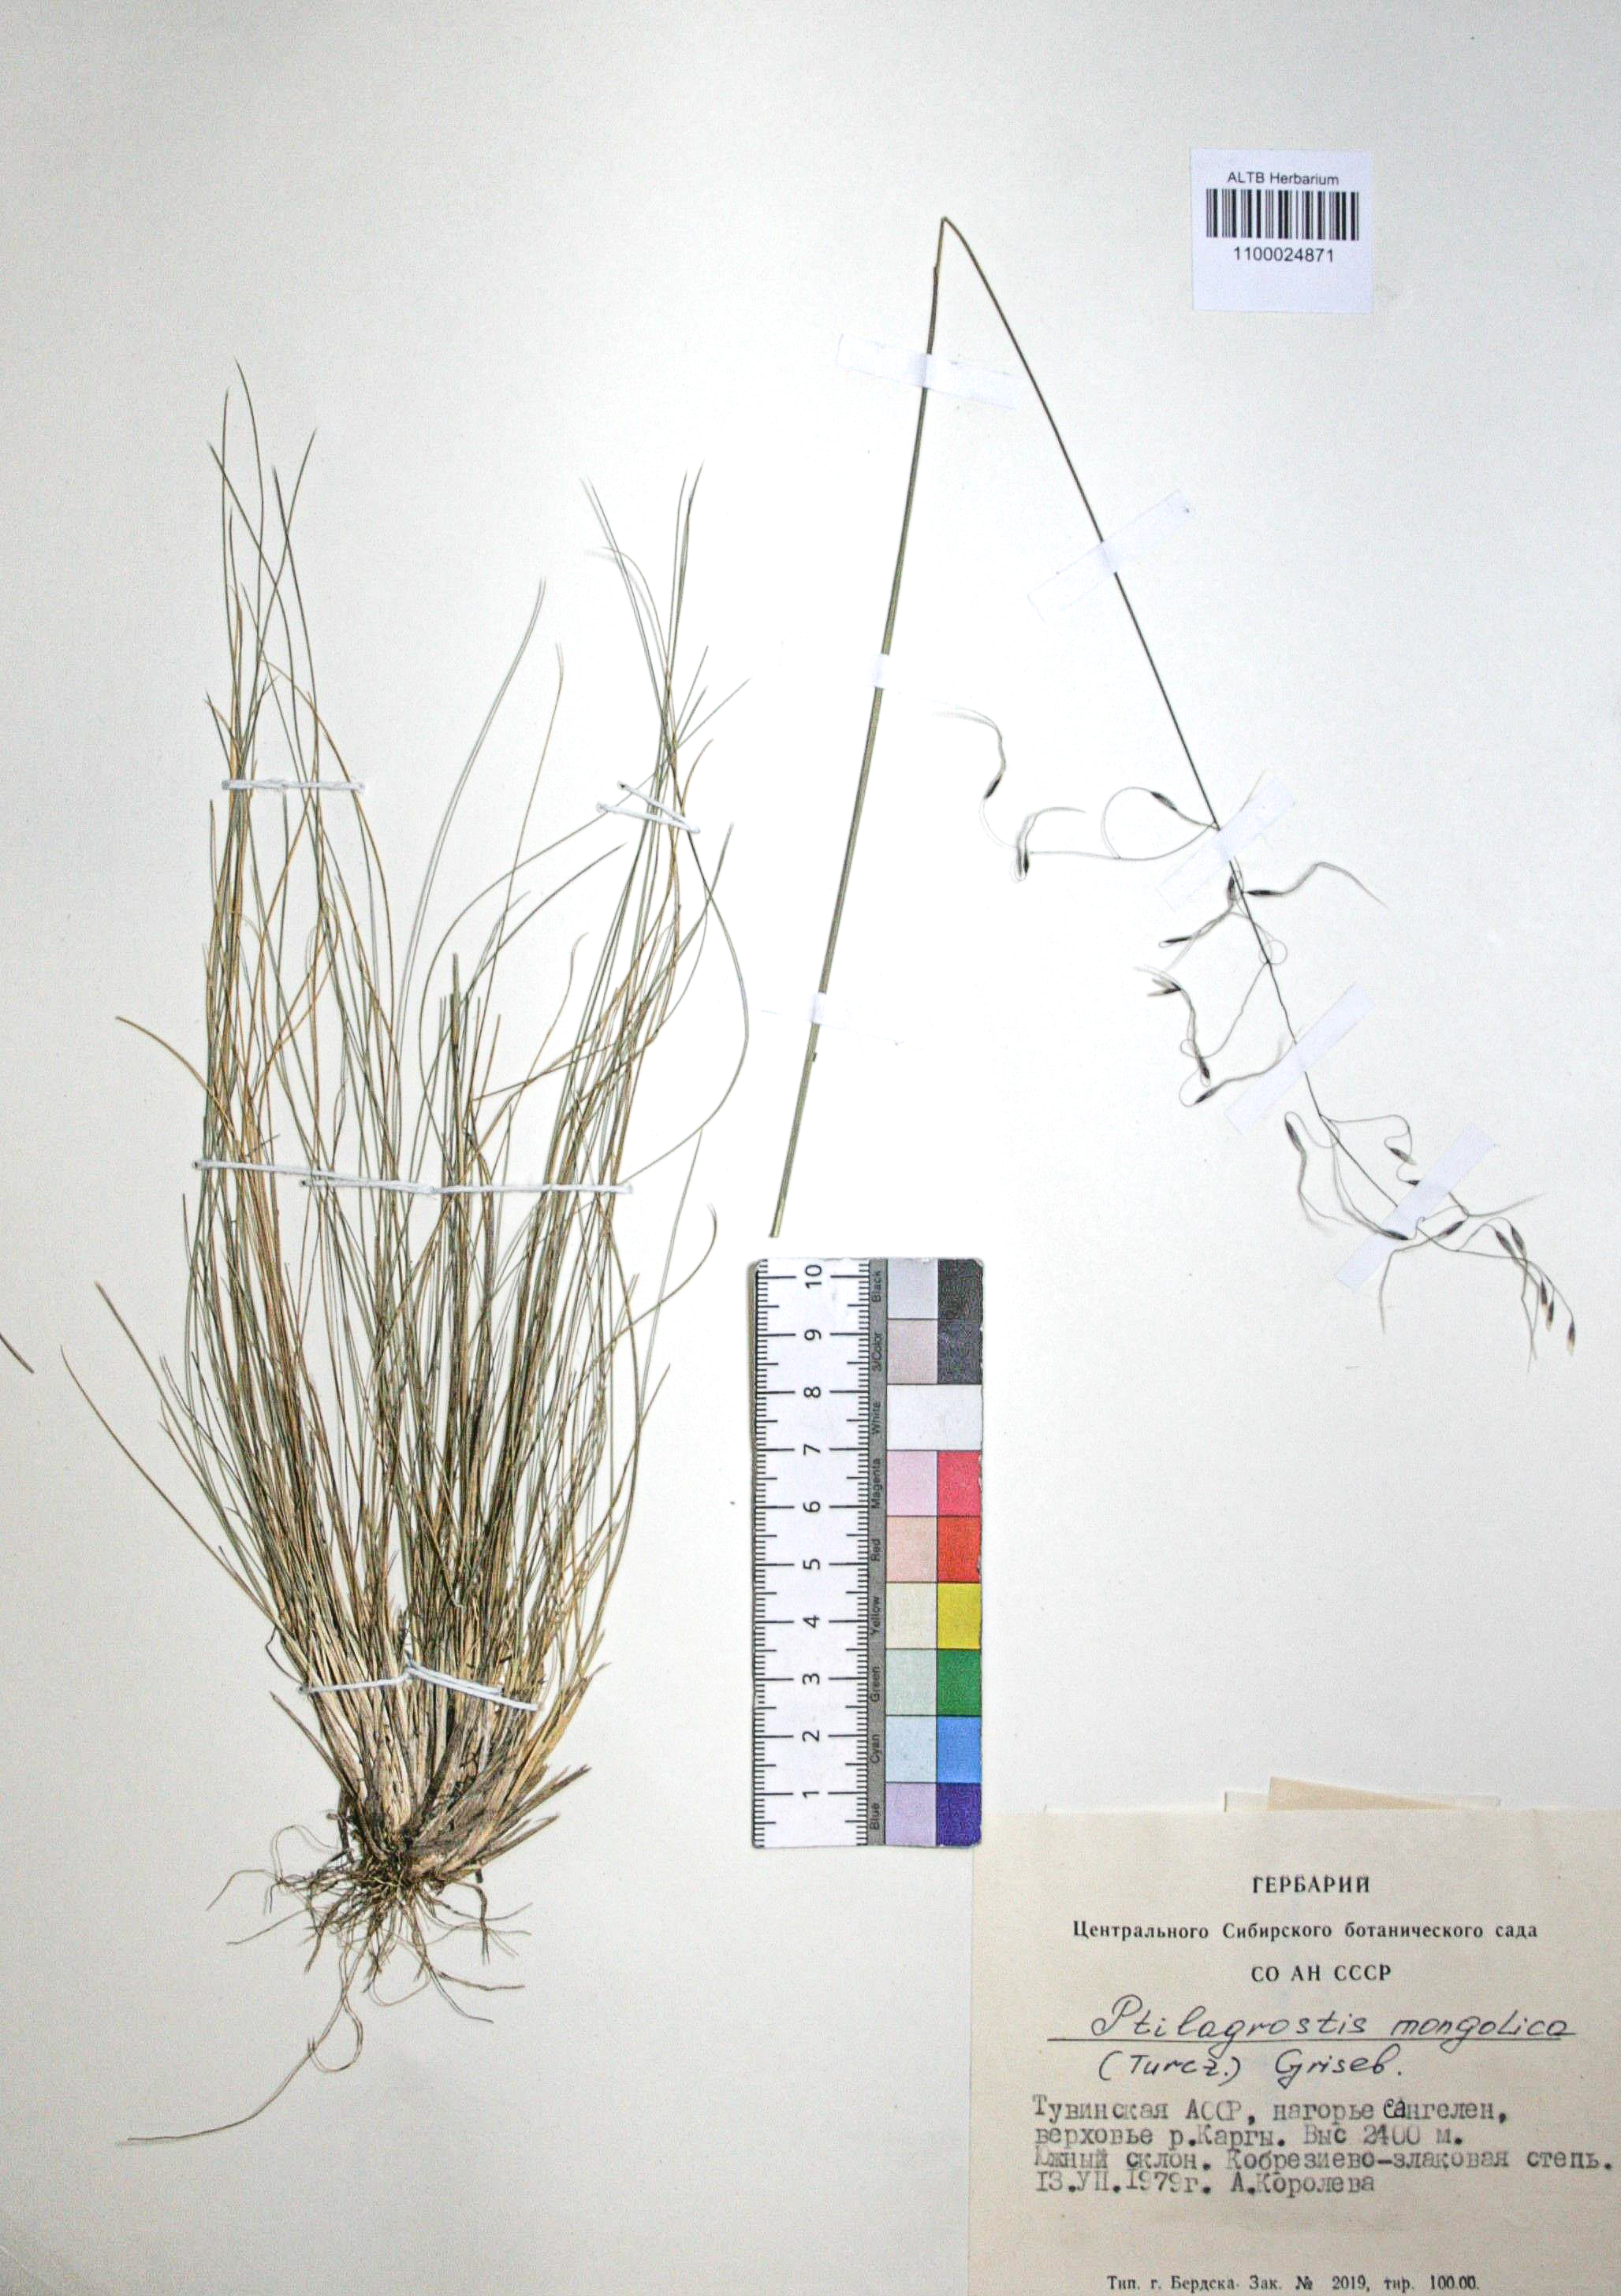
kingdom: Plantae
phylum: Tracheophyta
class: Liliopsida
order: Poales
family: Poaceae
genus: Ptilagrostis
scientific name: Ptilagrostis mongholica
